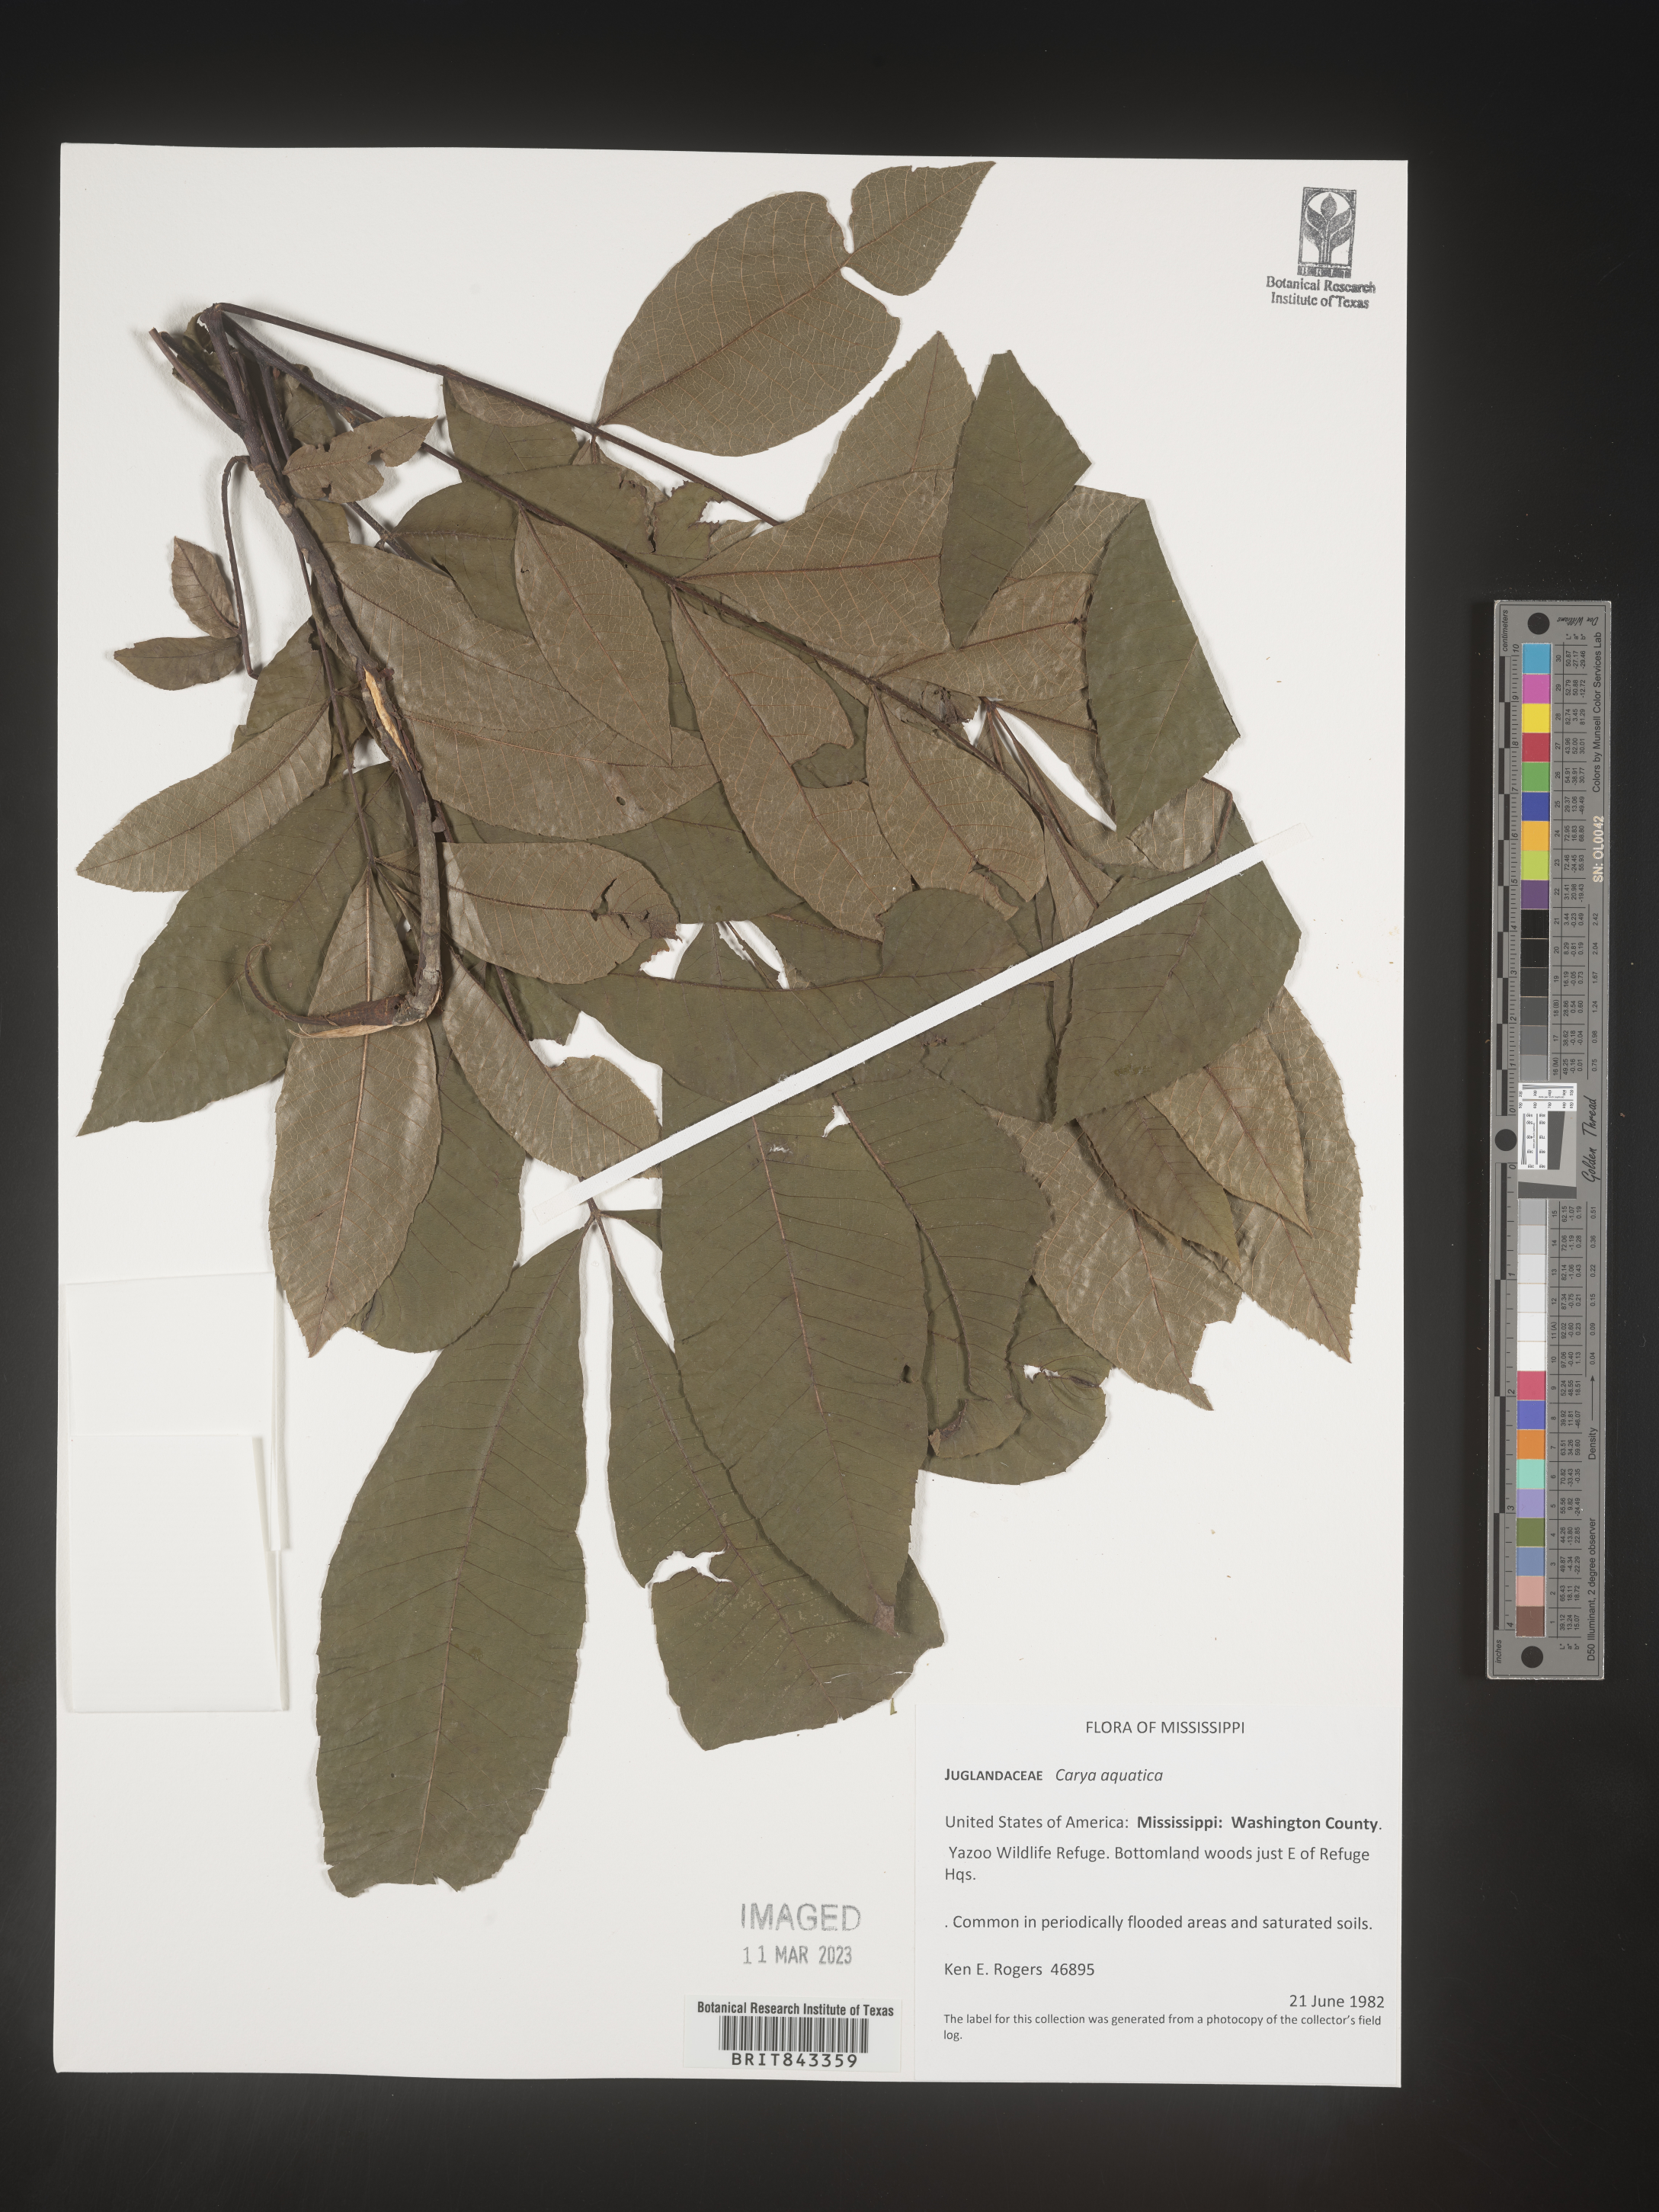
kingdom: Plantae
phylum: Tracheophyta
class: Magnoliopsida
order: Fagales
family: Juglandaceae
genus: Carya
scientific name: Carya aquatica
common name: Water hickory
